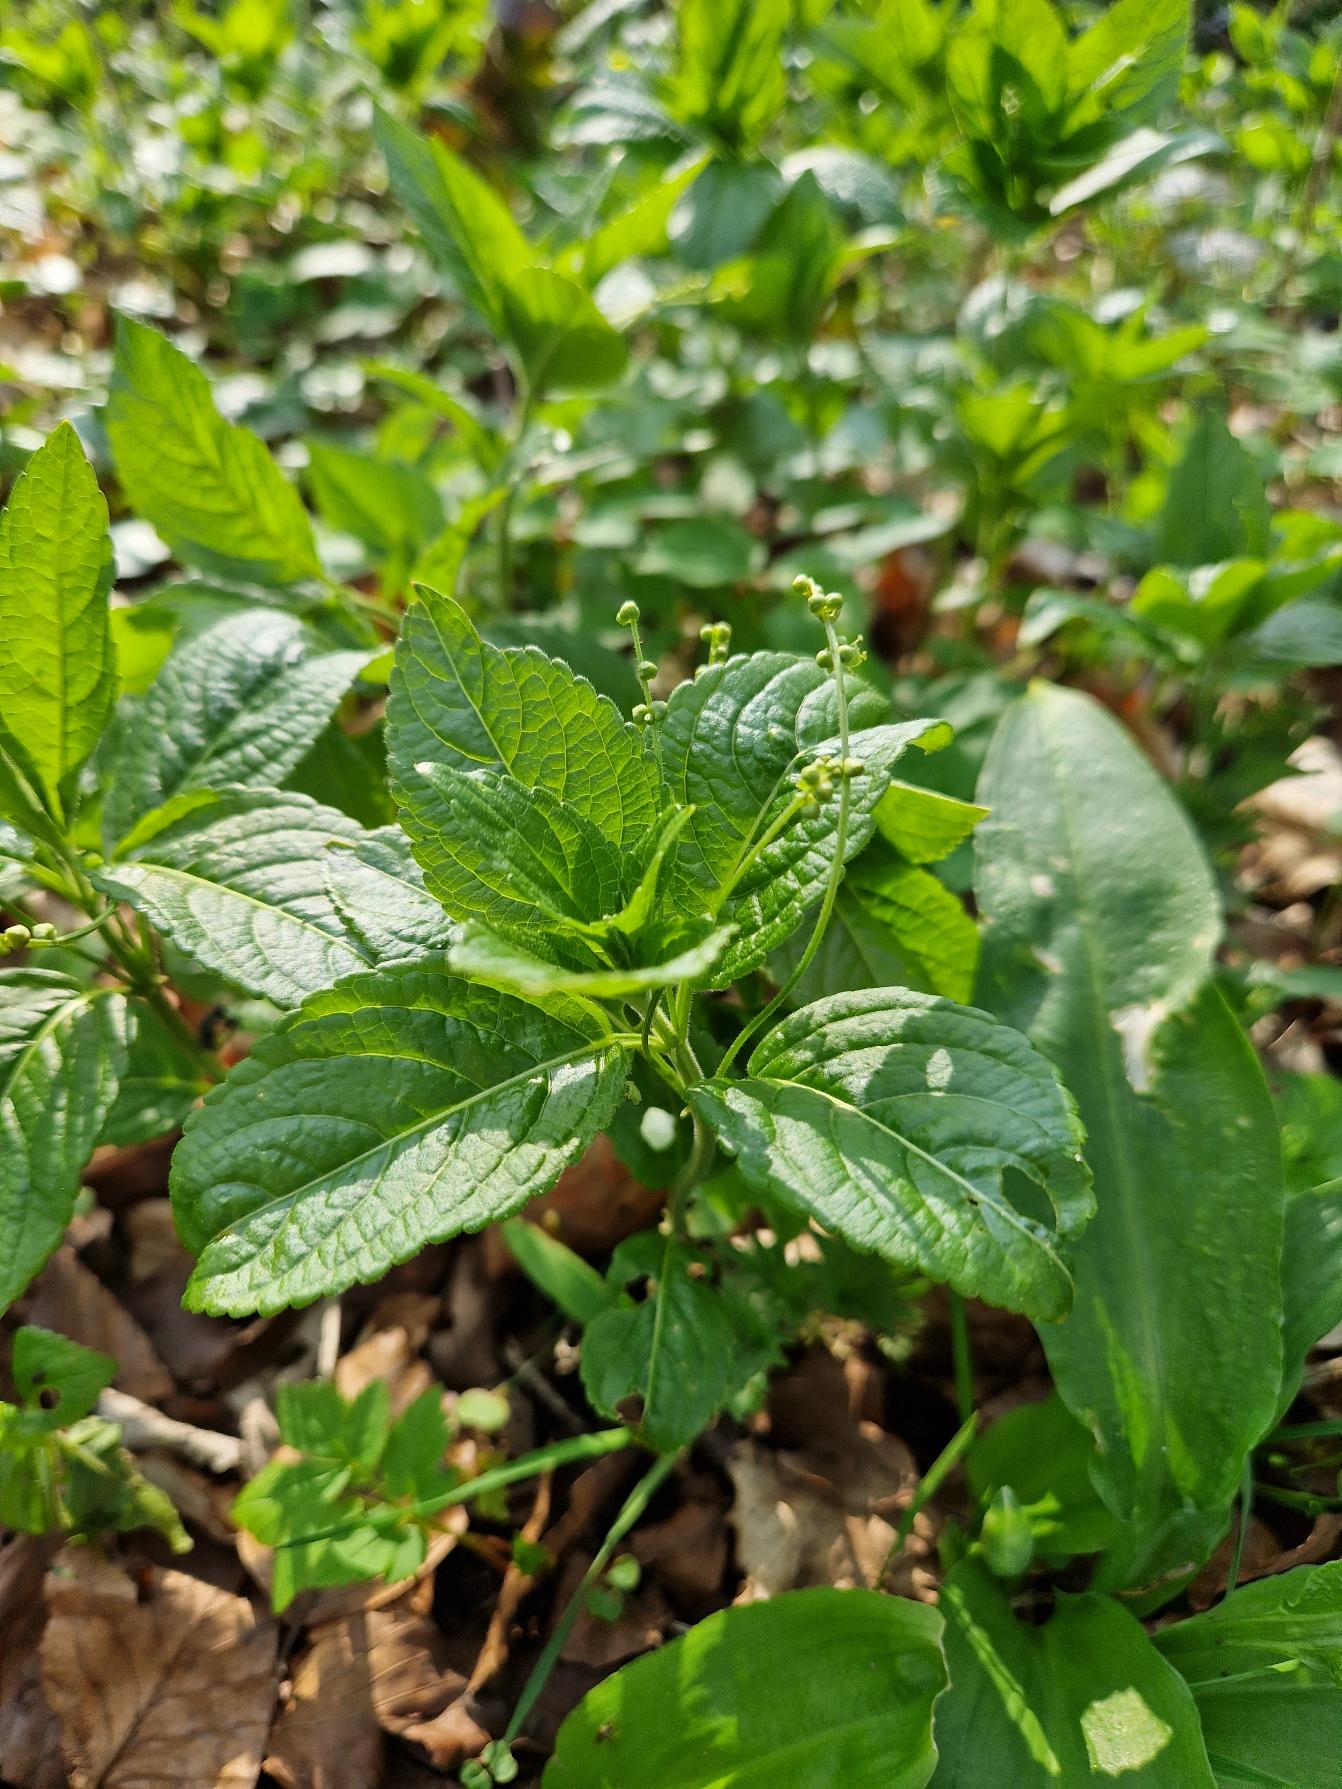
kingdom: Plantae
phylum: Tracheophyta
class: Magnoliopsida
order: Malpighiales
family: Euphorbiaceae
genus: Mercurialis
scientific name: Mercurialis perennis
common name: Almindelig bingelurt
